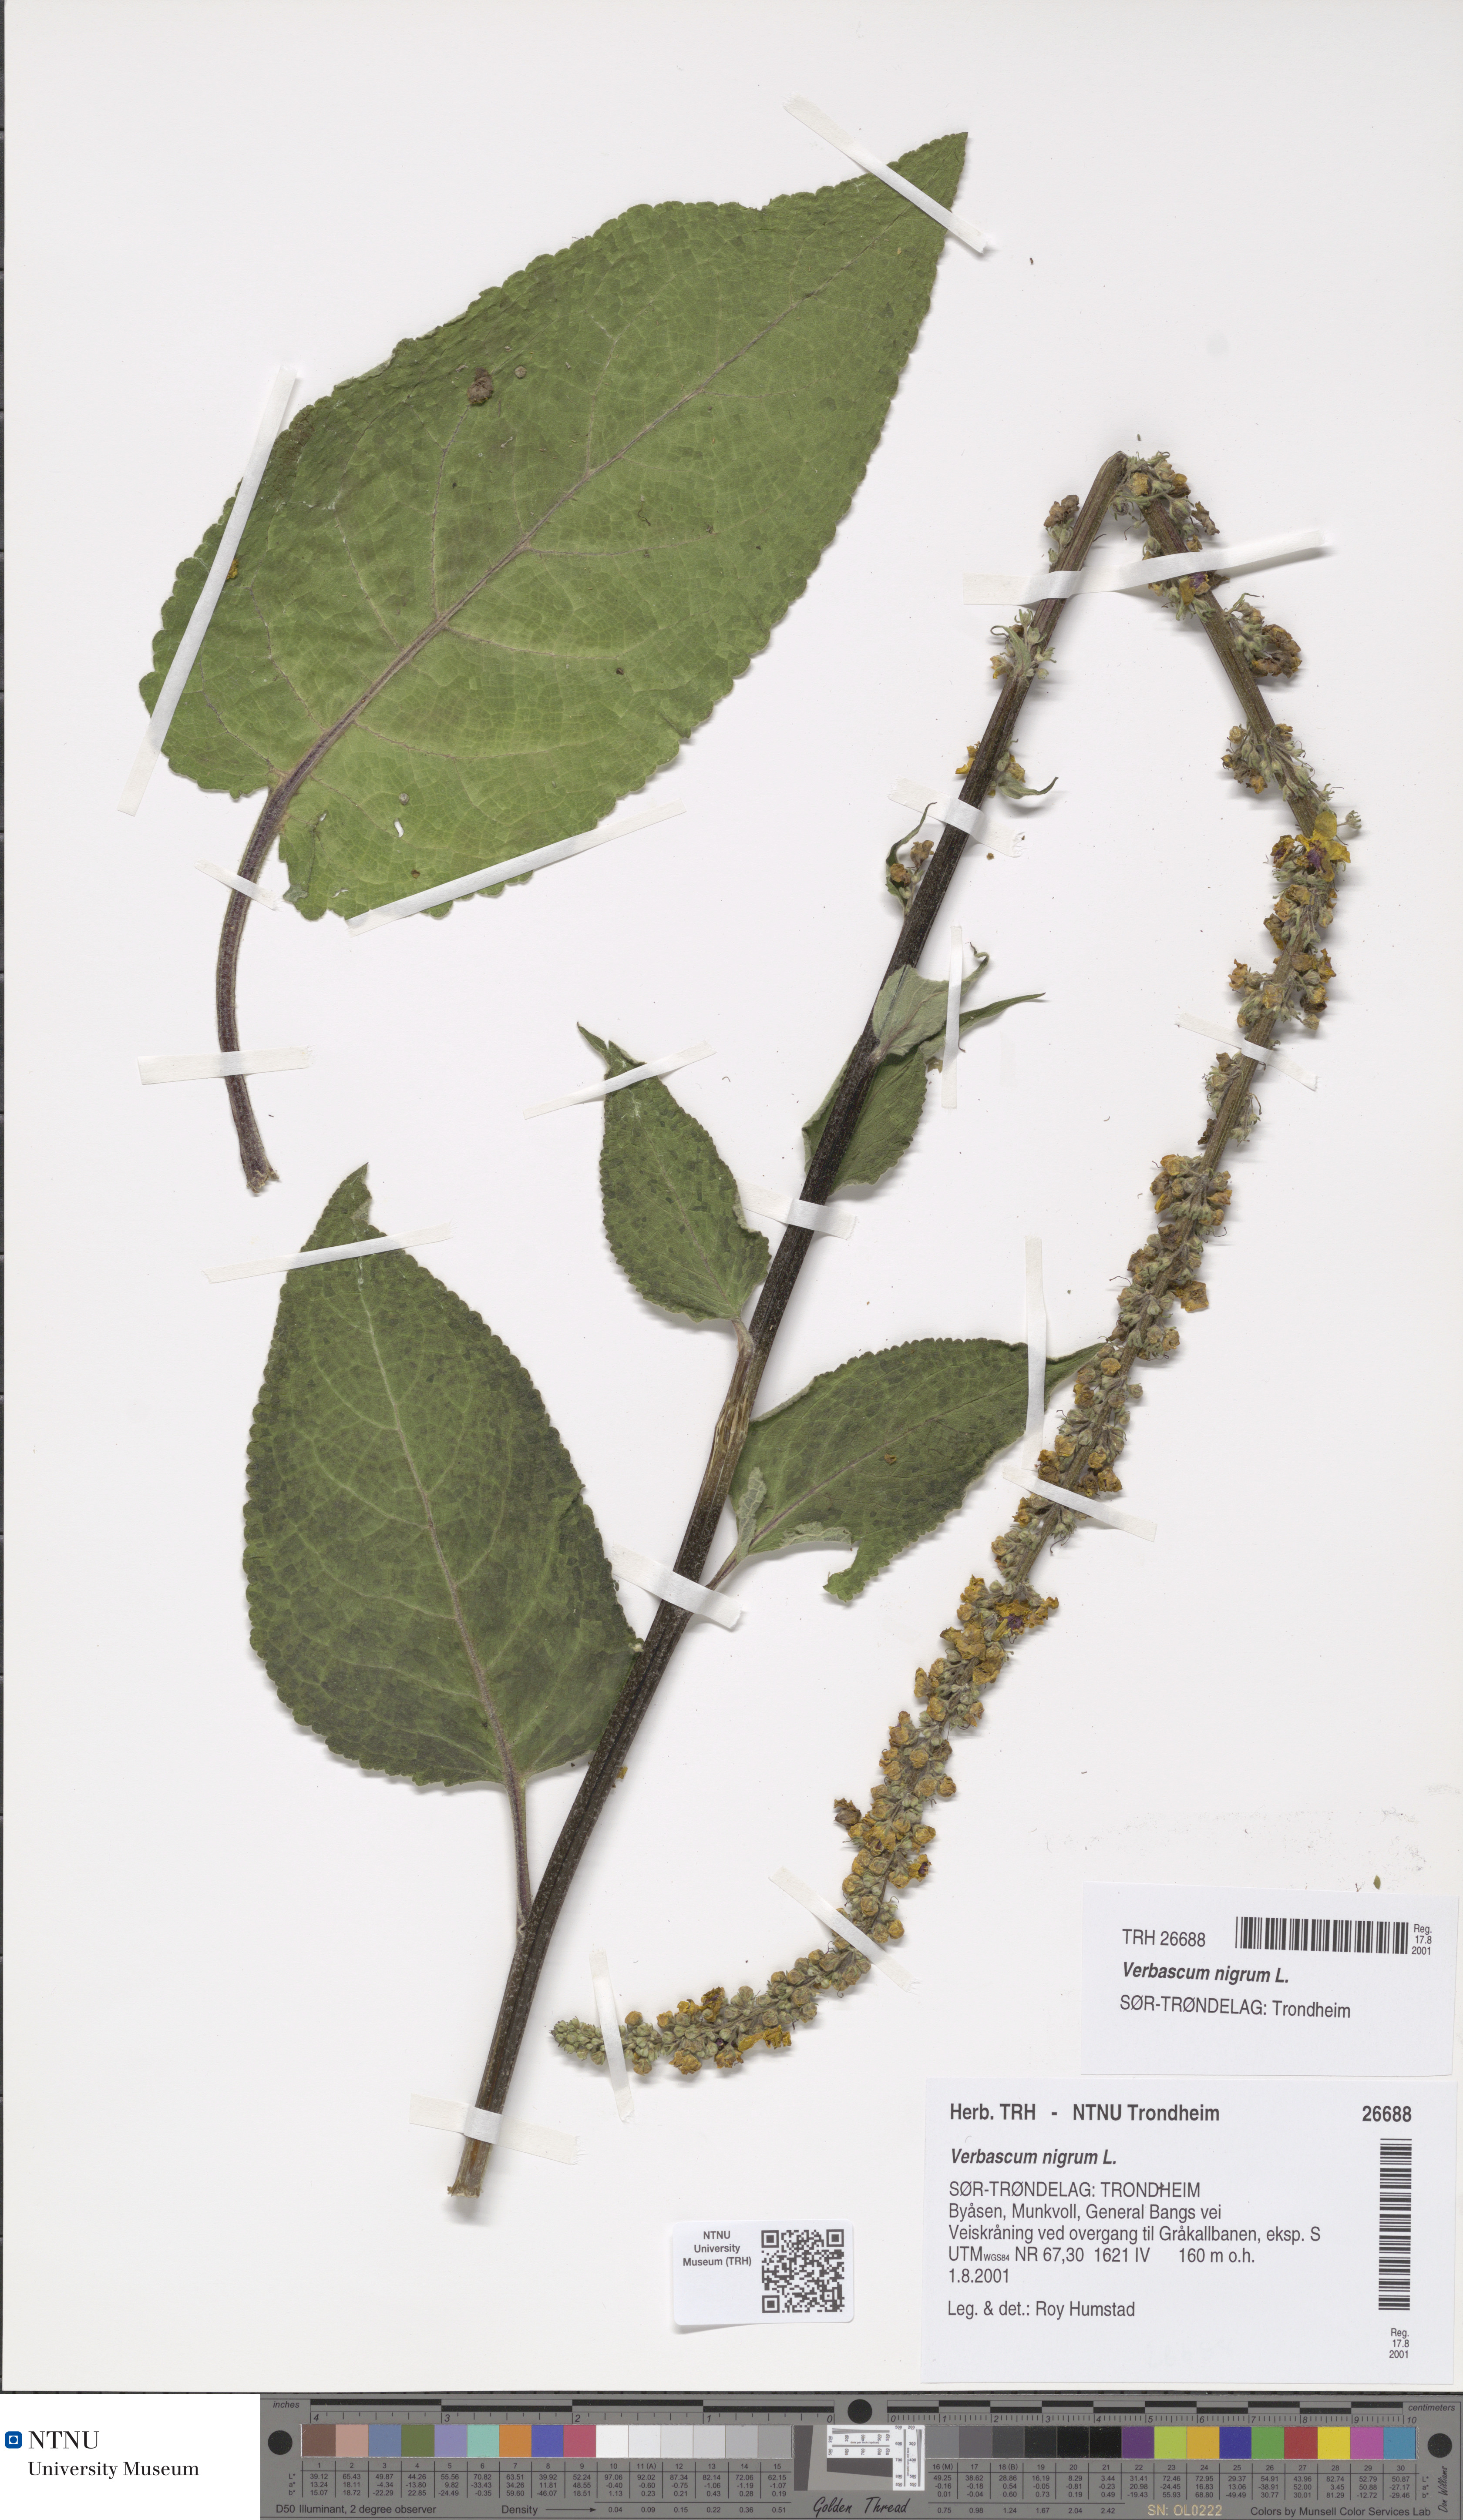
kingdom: Plantae
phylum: Tracheophyta
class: Magnoliopsida
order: Lamiales
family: Scrophulariaceae
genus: Verbascum
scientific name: Verbascum nigrum
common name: Dark mullein
